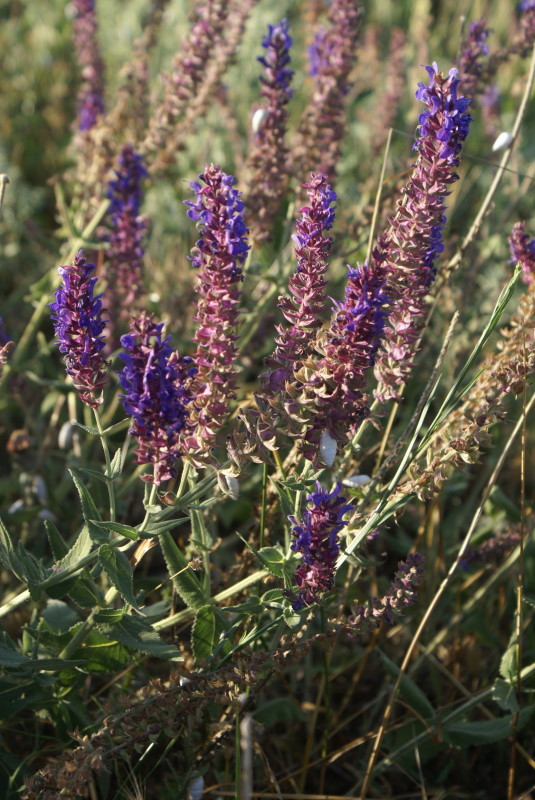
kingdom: Plantae
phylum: Tracheophyta
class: Magnoliopsida
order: Lamiales
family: Lamiaceae
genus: Salvia
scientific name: Salvia
